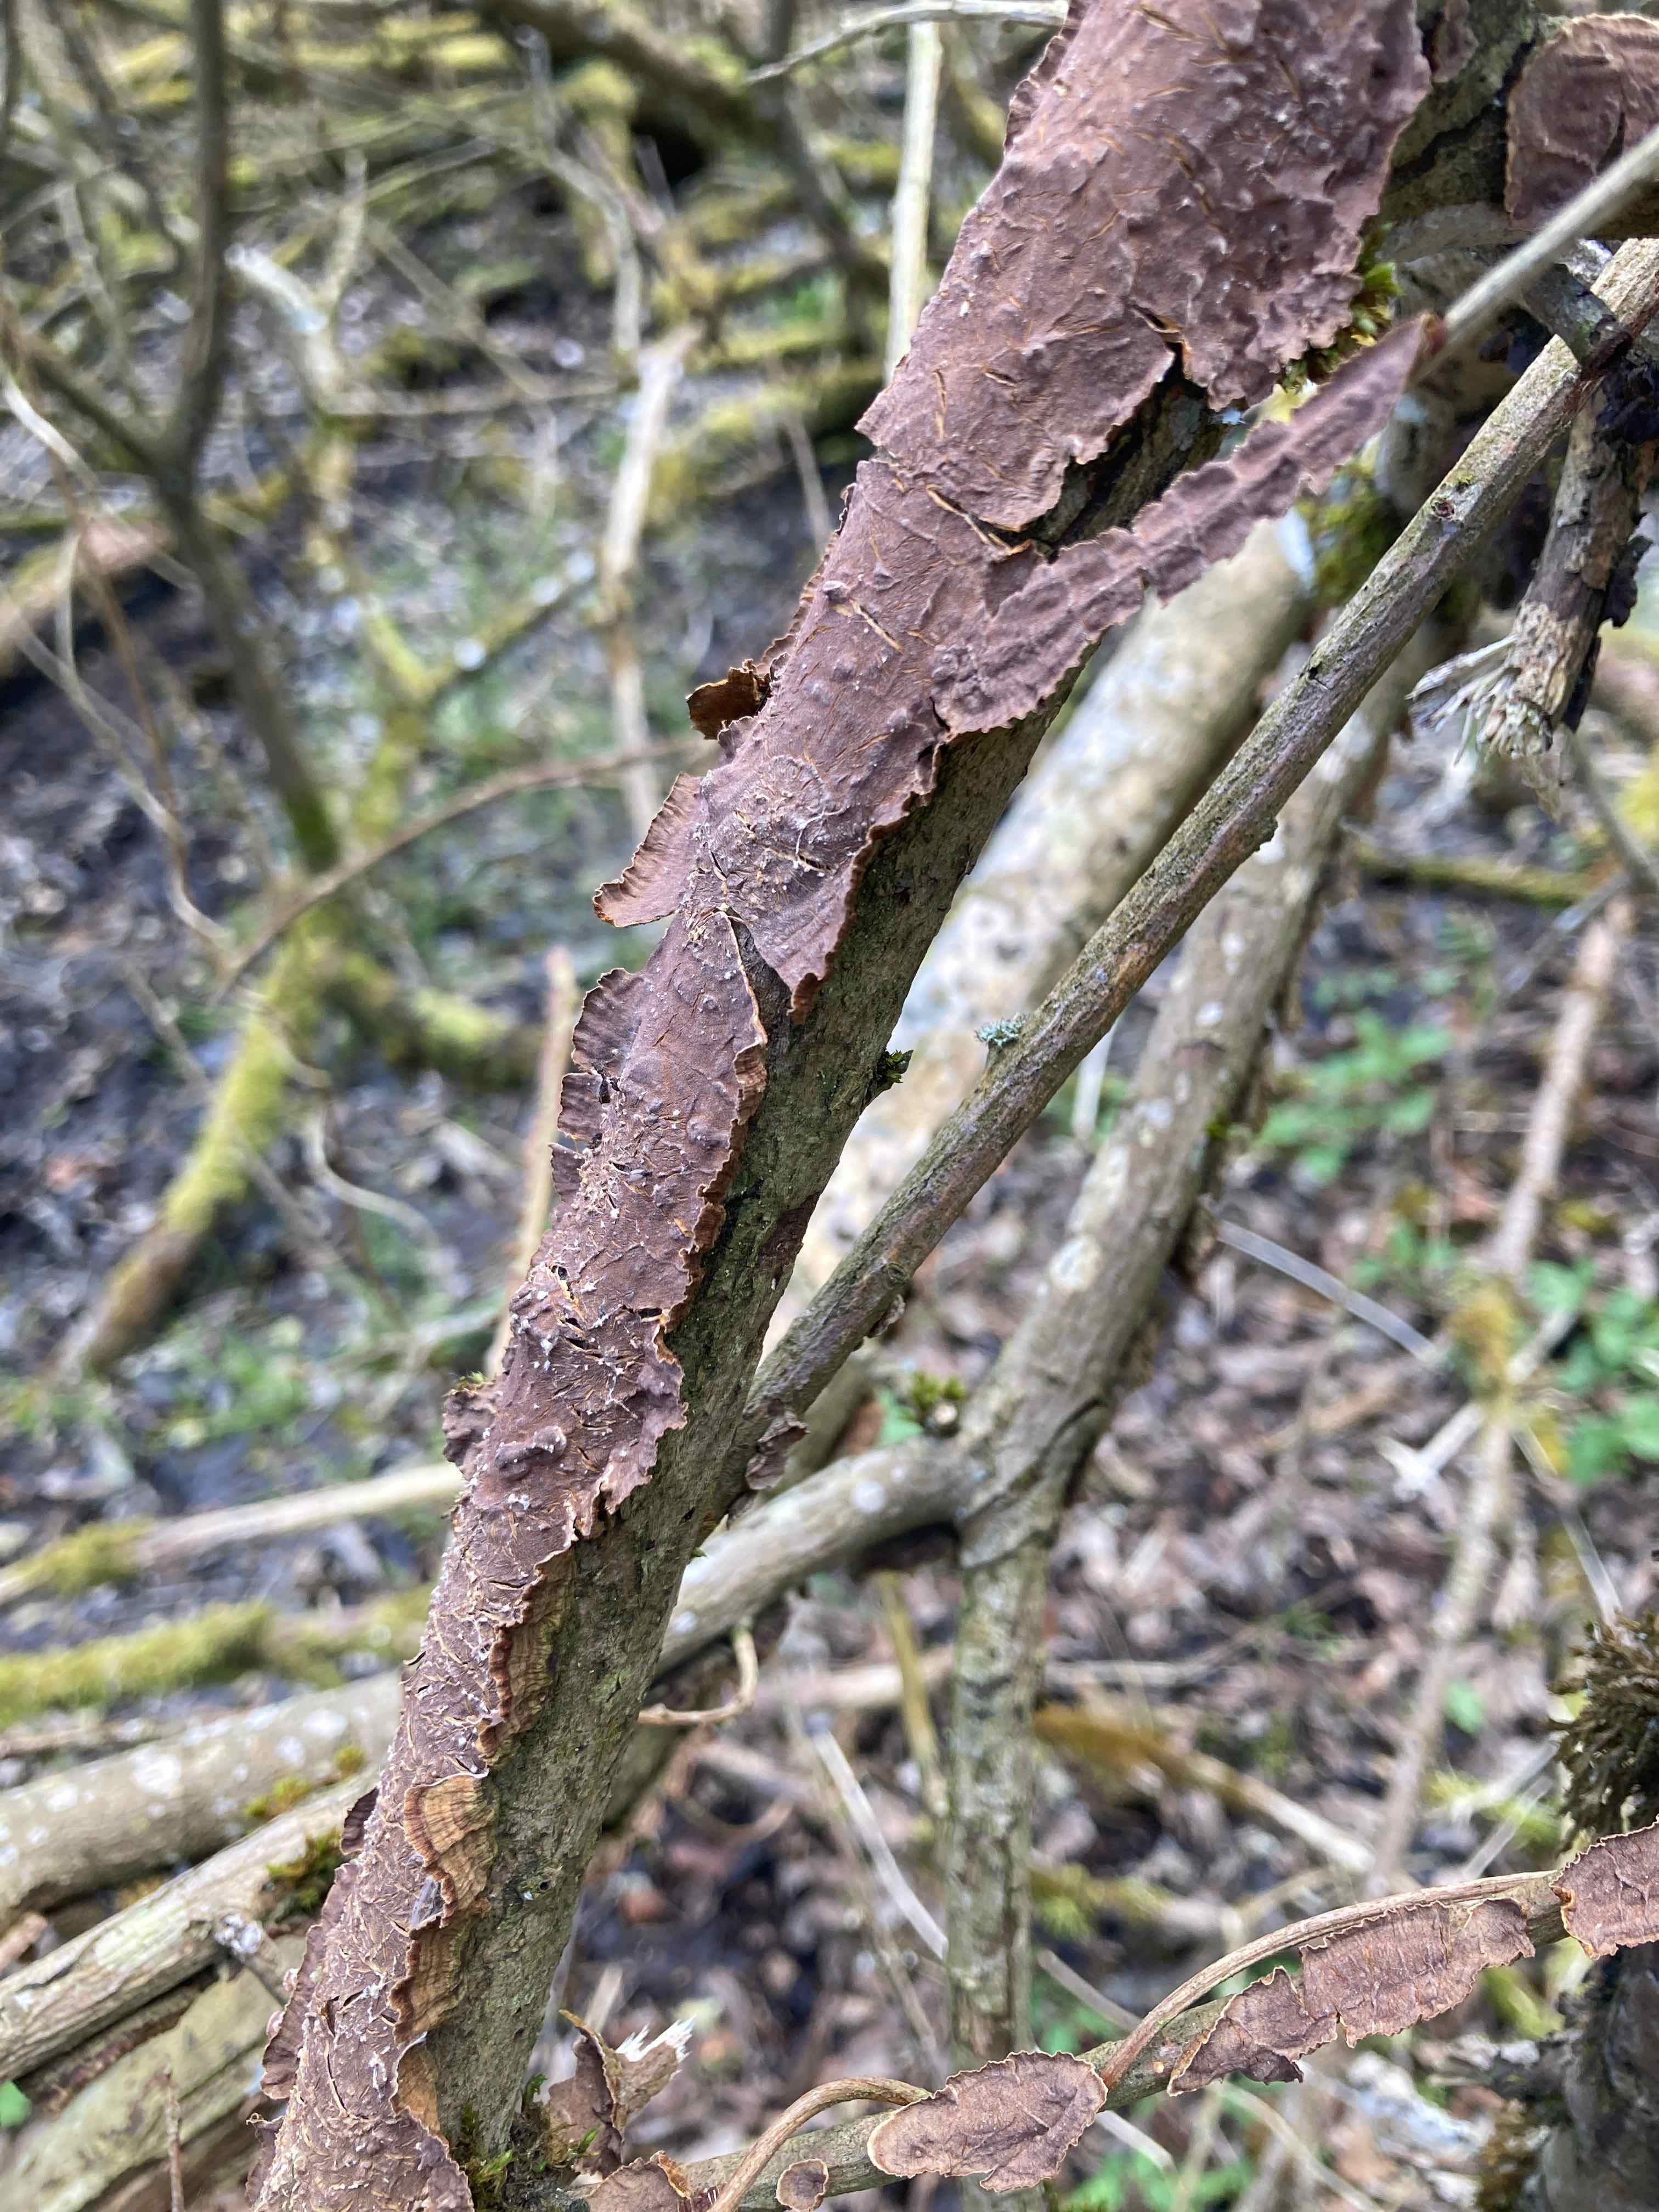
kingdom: Fungi
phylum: Basidiomycota
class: Agaricomycetes
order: Hymenochaetales
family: Hymenochaetaceae
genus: Hydnoporia
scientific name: Hydnoporia tabacina
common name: tobaksbrun ruslædersvamp
